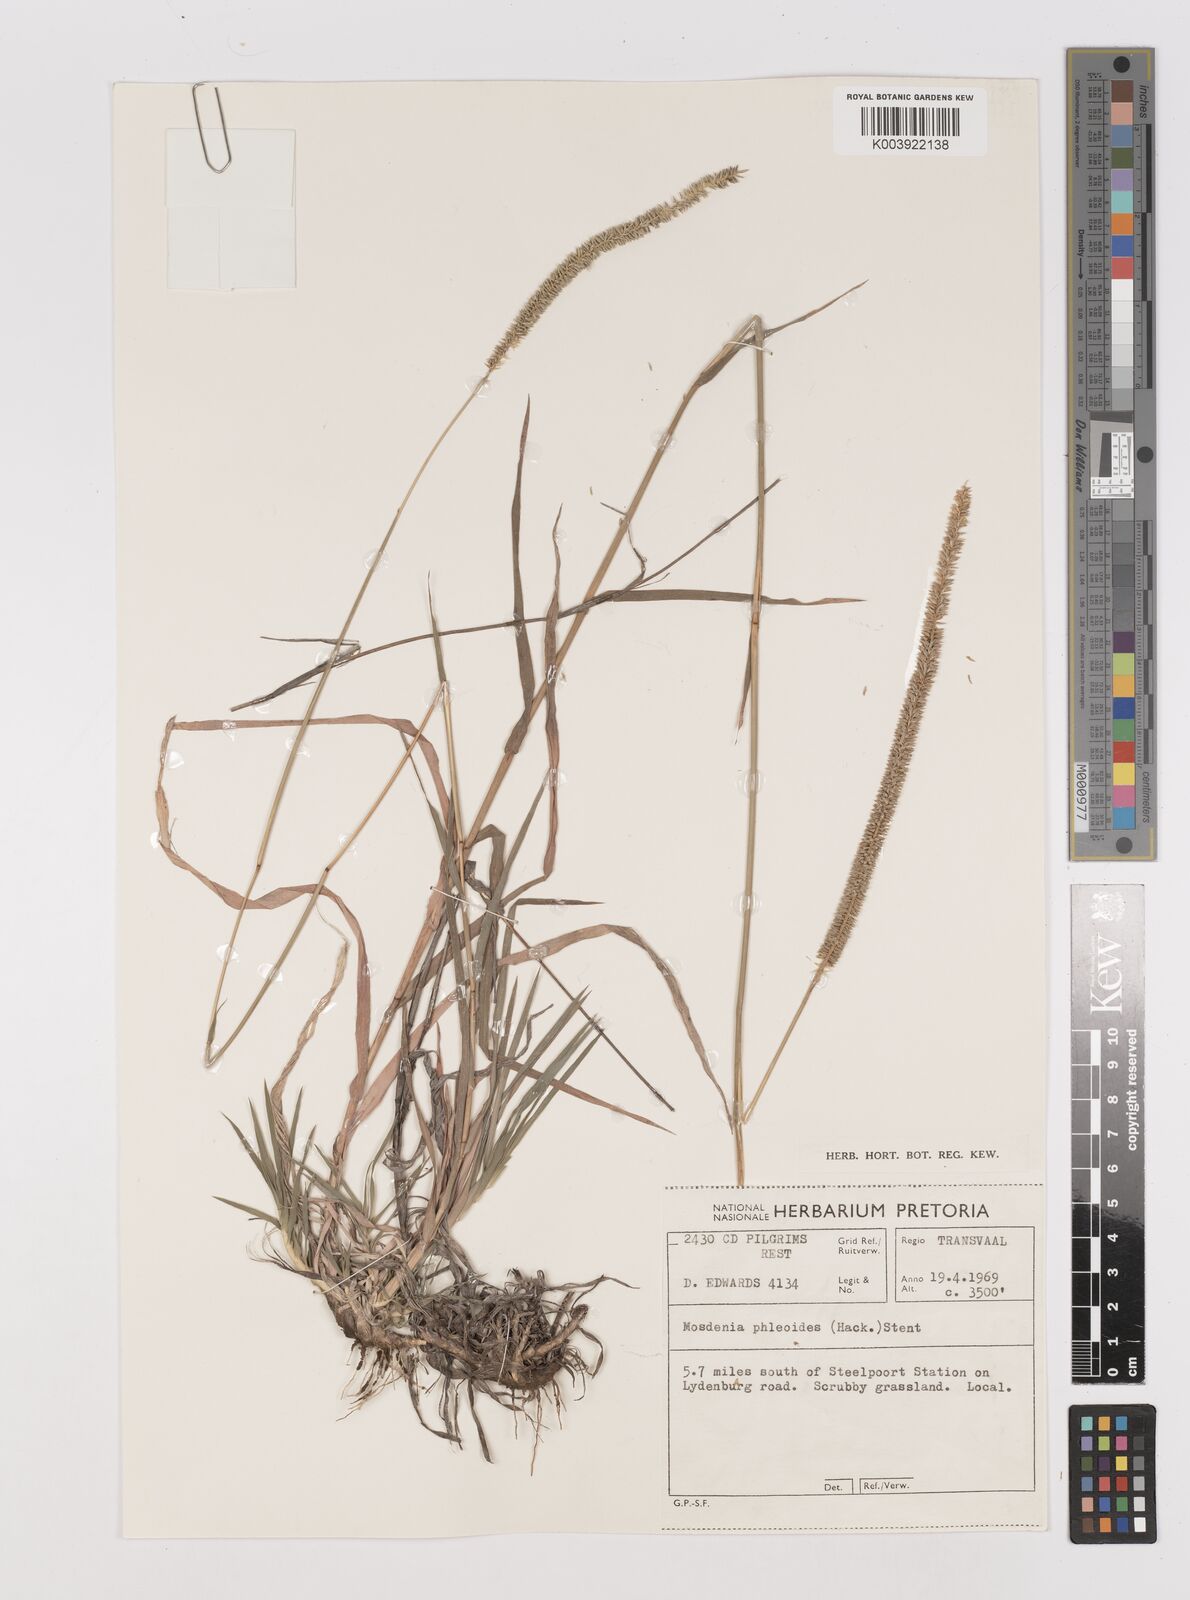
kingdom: Plantae
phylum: Tracheophyta
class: Liliopsida
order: Poales
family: Poaceae
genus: Mosdenia
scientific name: Mosdenia leptostachys
